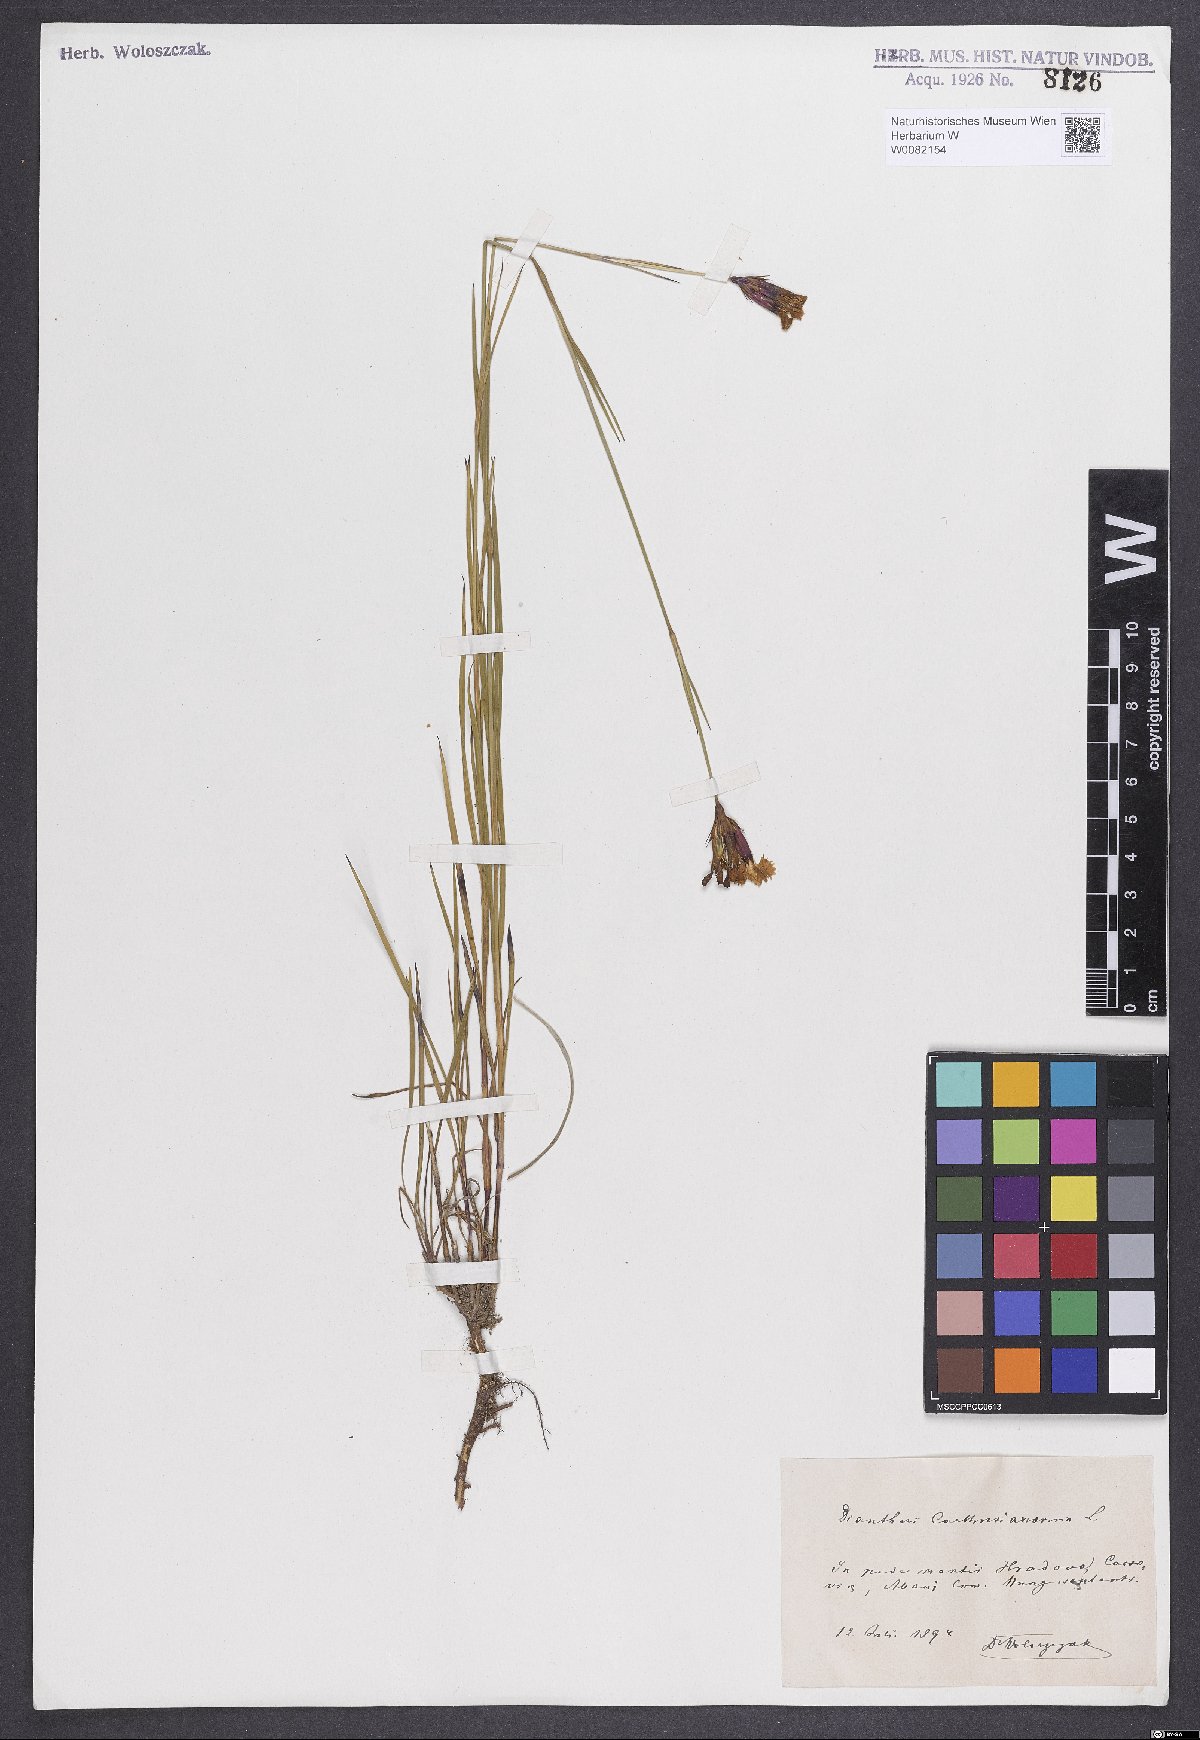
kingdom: Plantae
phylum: Tracheophyta
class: Magnoliopsida
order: Caryophyllales
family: Caryophyllaceae
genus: Dianthus
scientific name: Dianthus carthusianorum
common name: Carthusian pink
